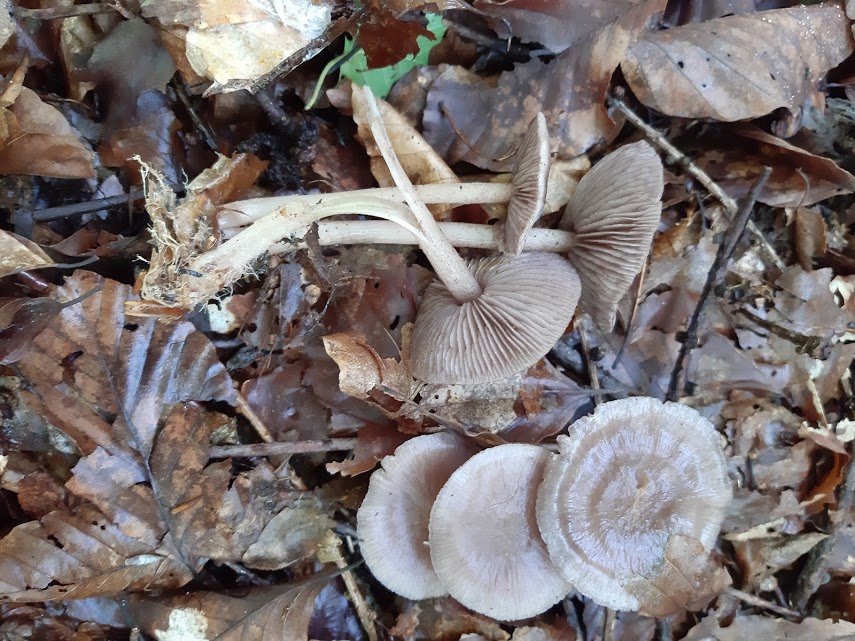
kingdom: Fungi
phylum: Basidiomycota
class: Agaricomycetes
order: Agaricales
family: Mycenaceae
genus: Mycena
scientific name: Mycena pelianthina
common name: mørkbladet huesvamp
